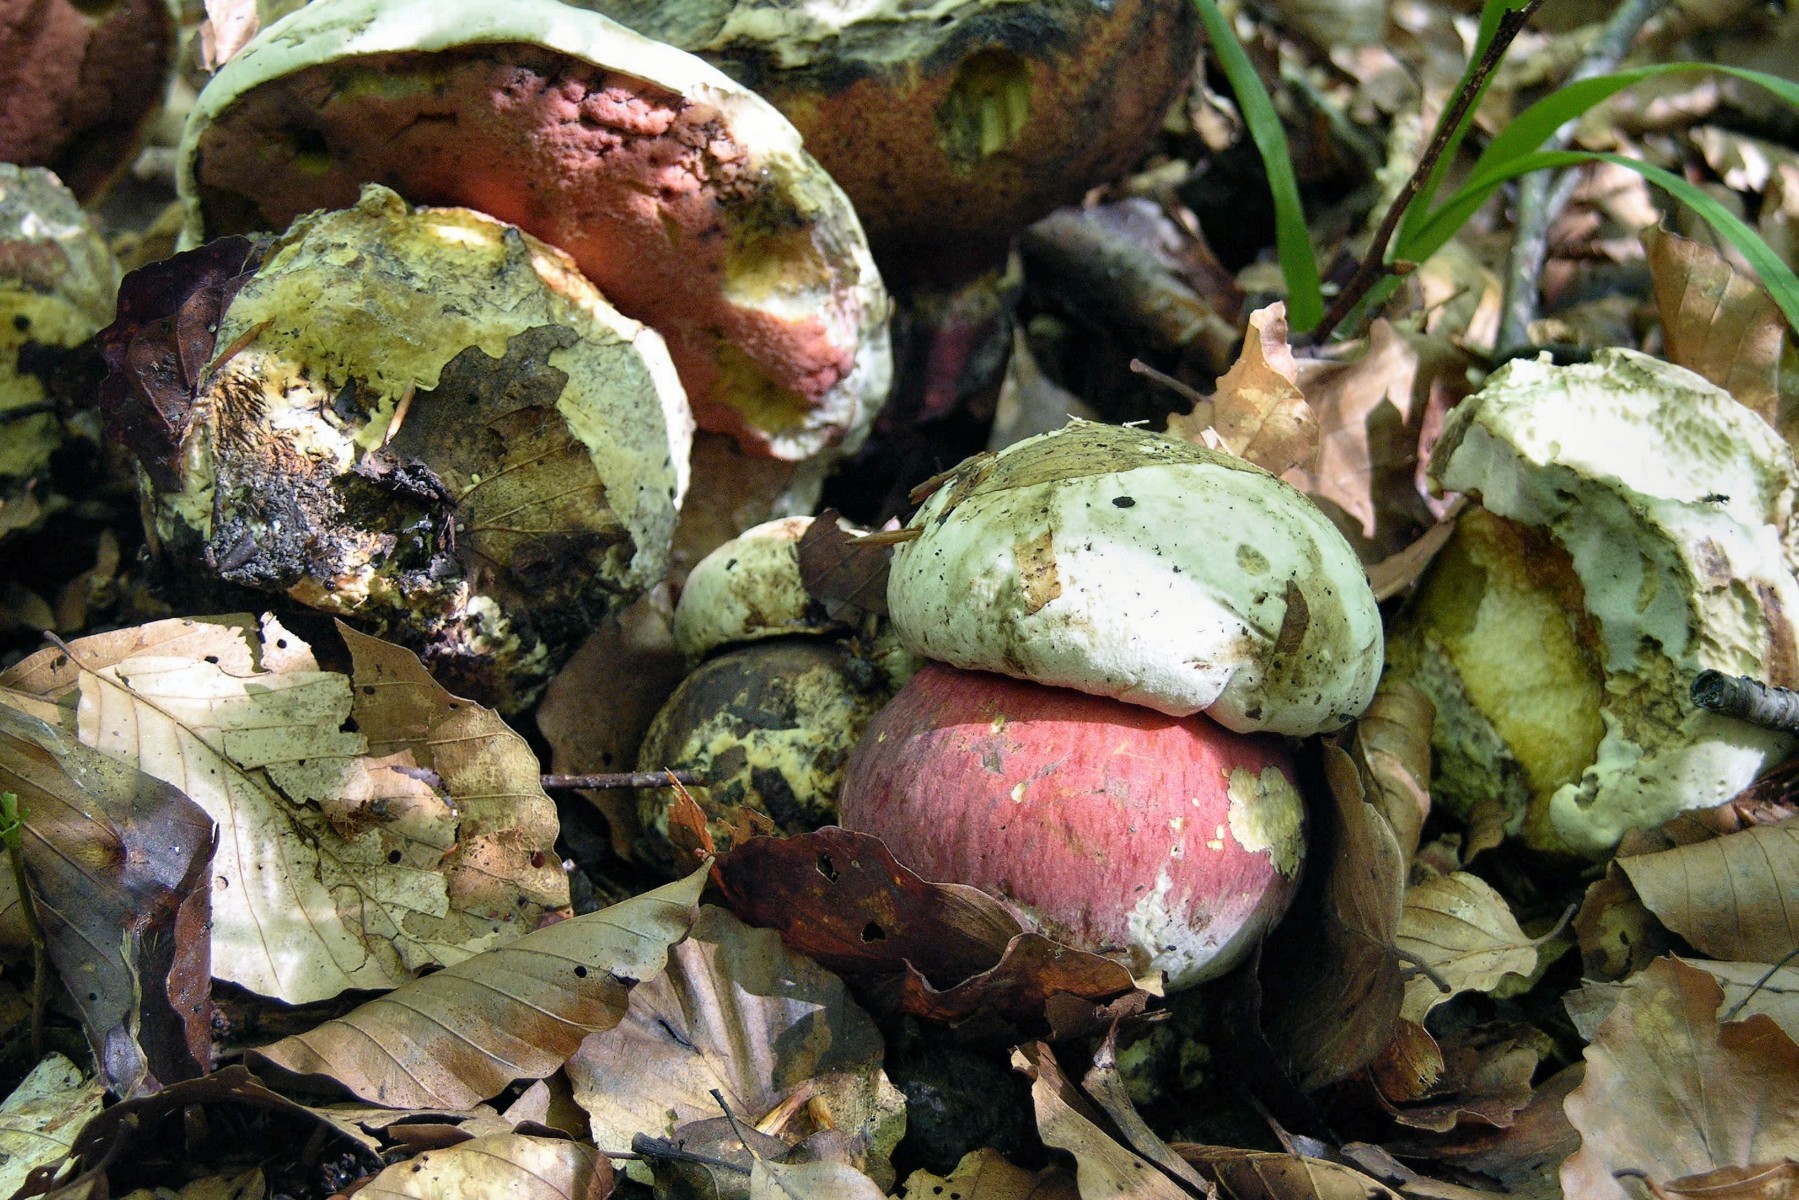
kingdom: Fungi
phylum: Basidiomycota
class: Agaricomycetes
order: Boletales
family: Boletaceae
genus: Rubroboletus
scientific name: Rubroboletus satanas
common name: Satans rørhat
